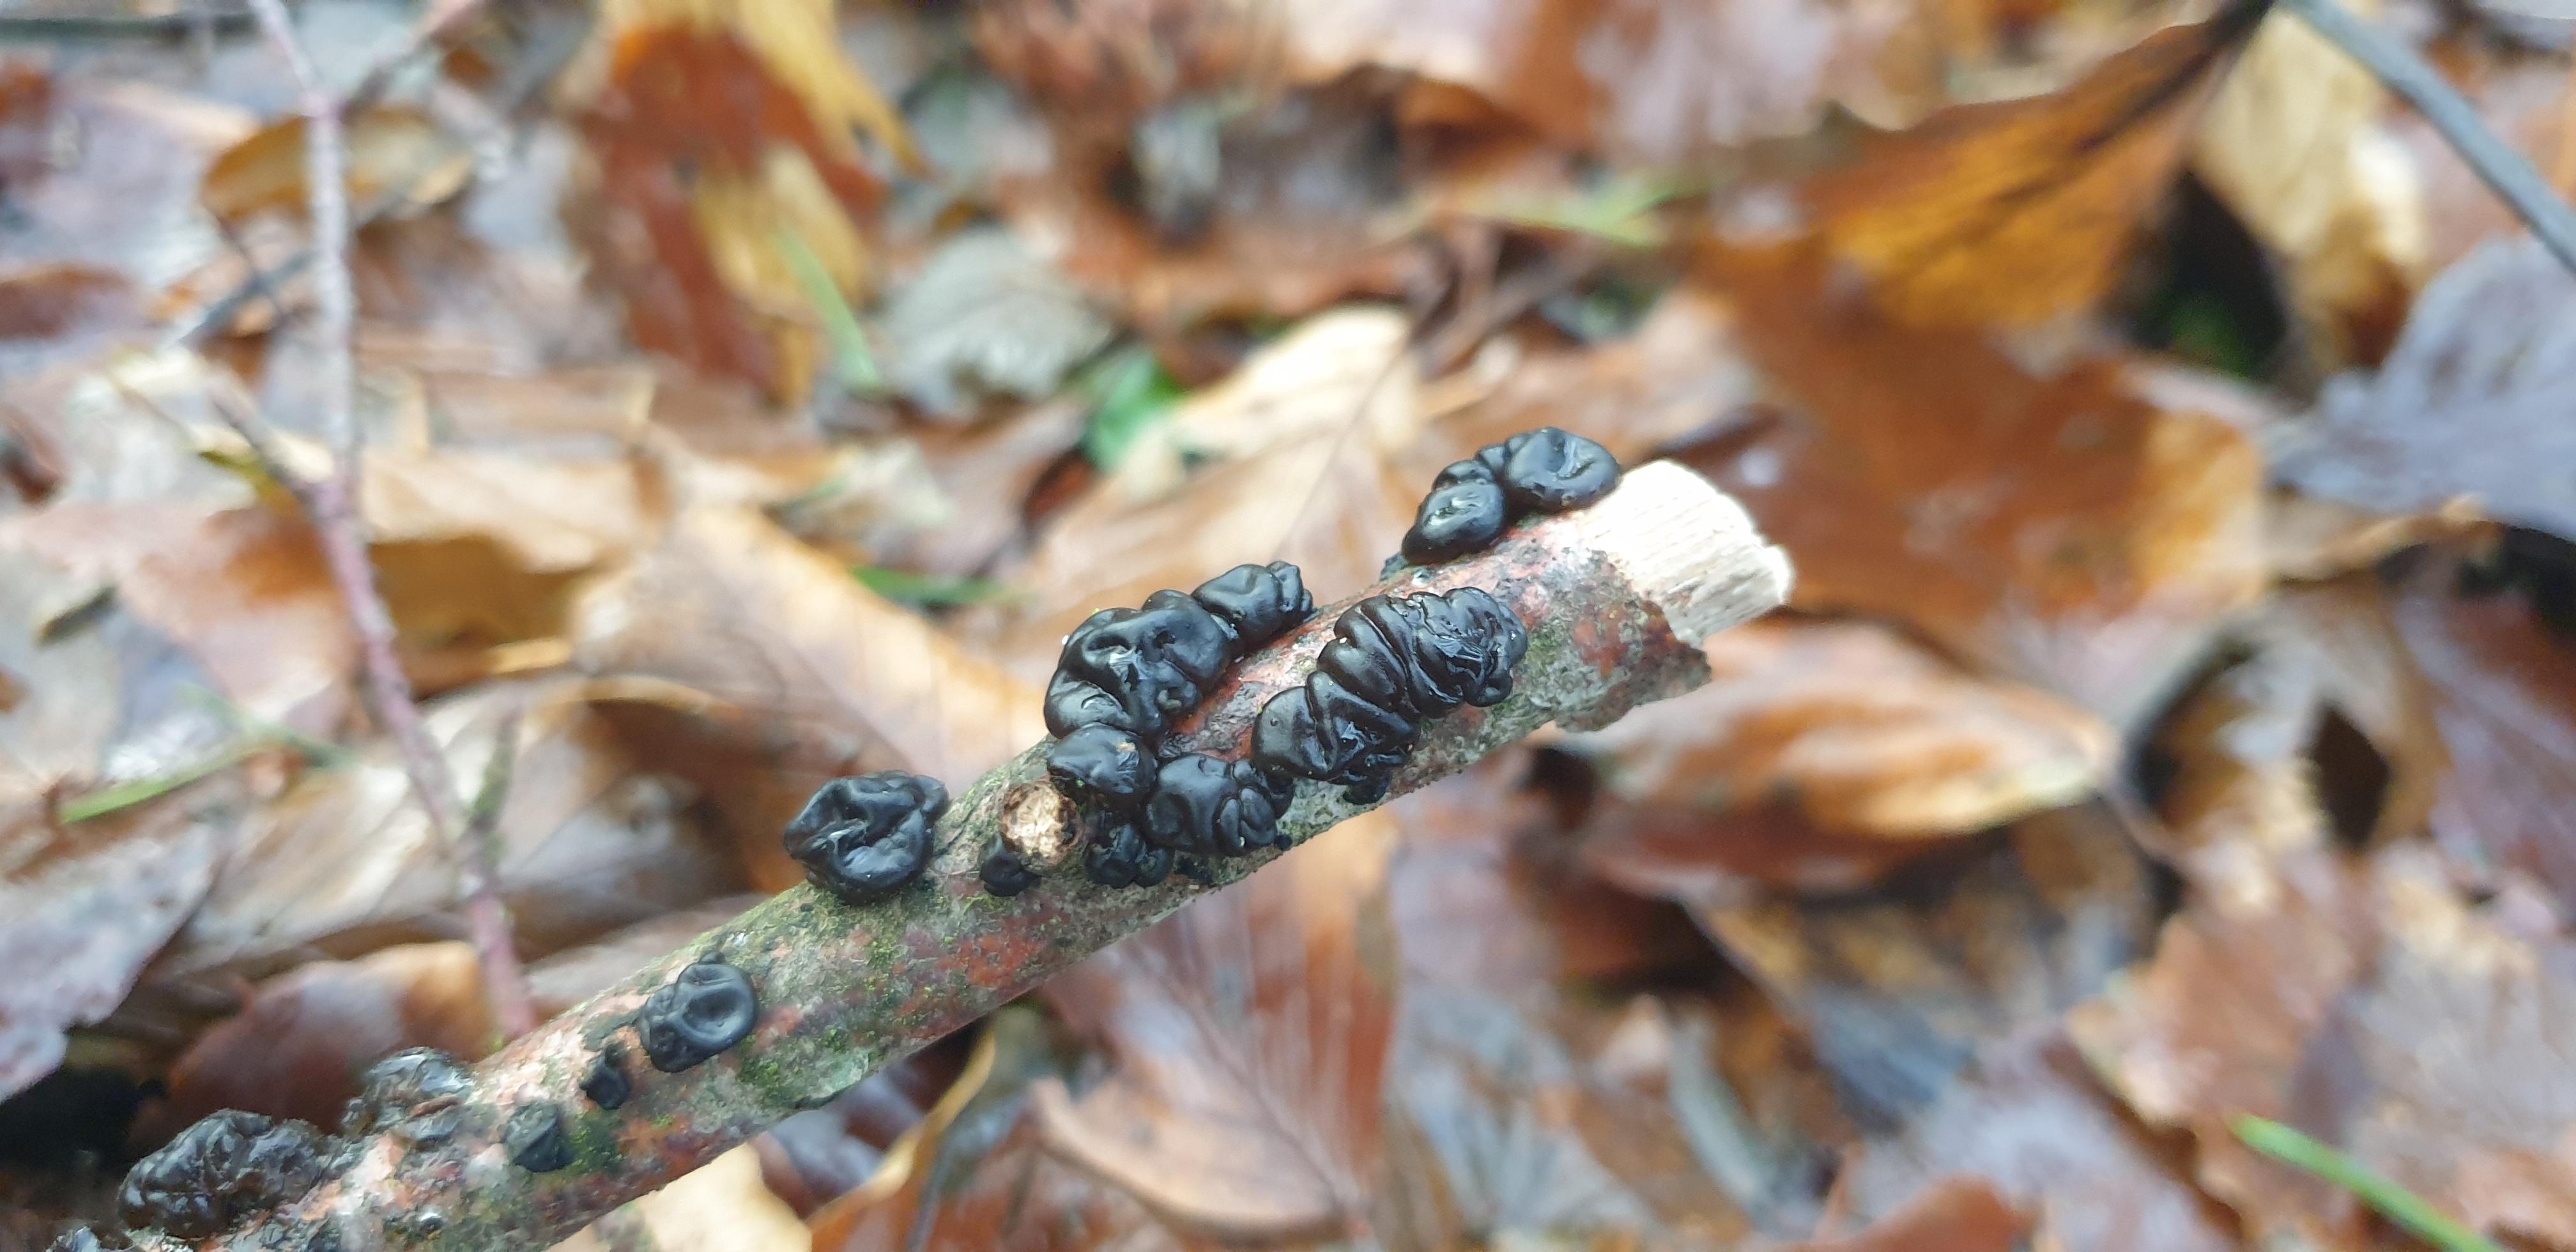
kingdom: Fungi
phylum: Basidiomycota
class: Agaricomycetes
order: Auriculariales
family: Auriculariaceae
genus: Exidia
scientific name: Exidia nigricans
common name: almindelig bævretop
